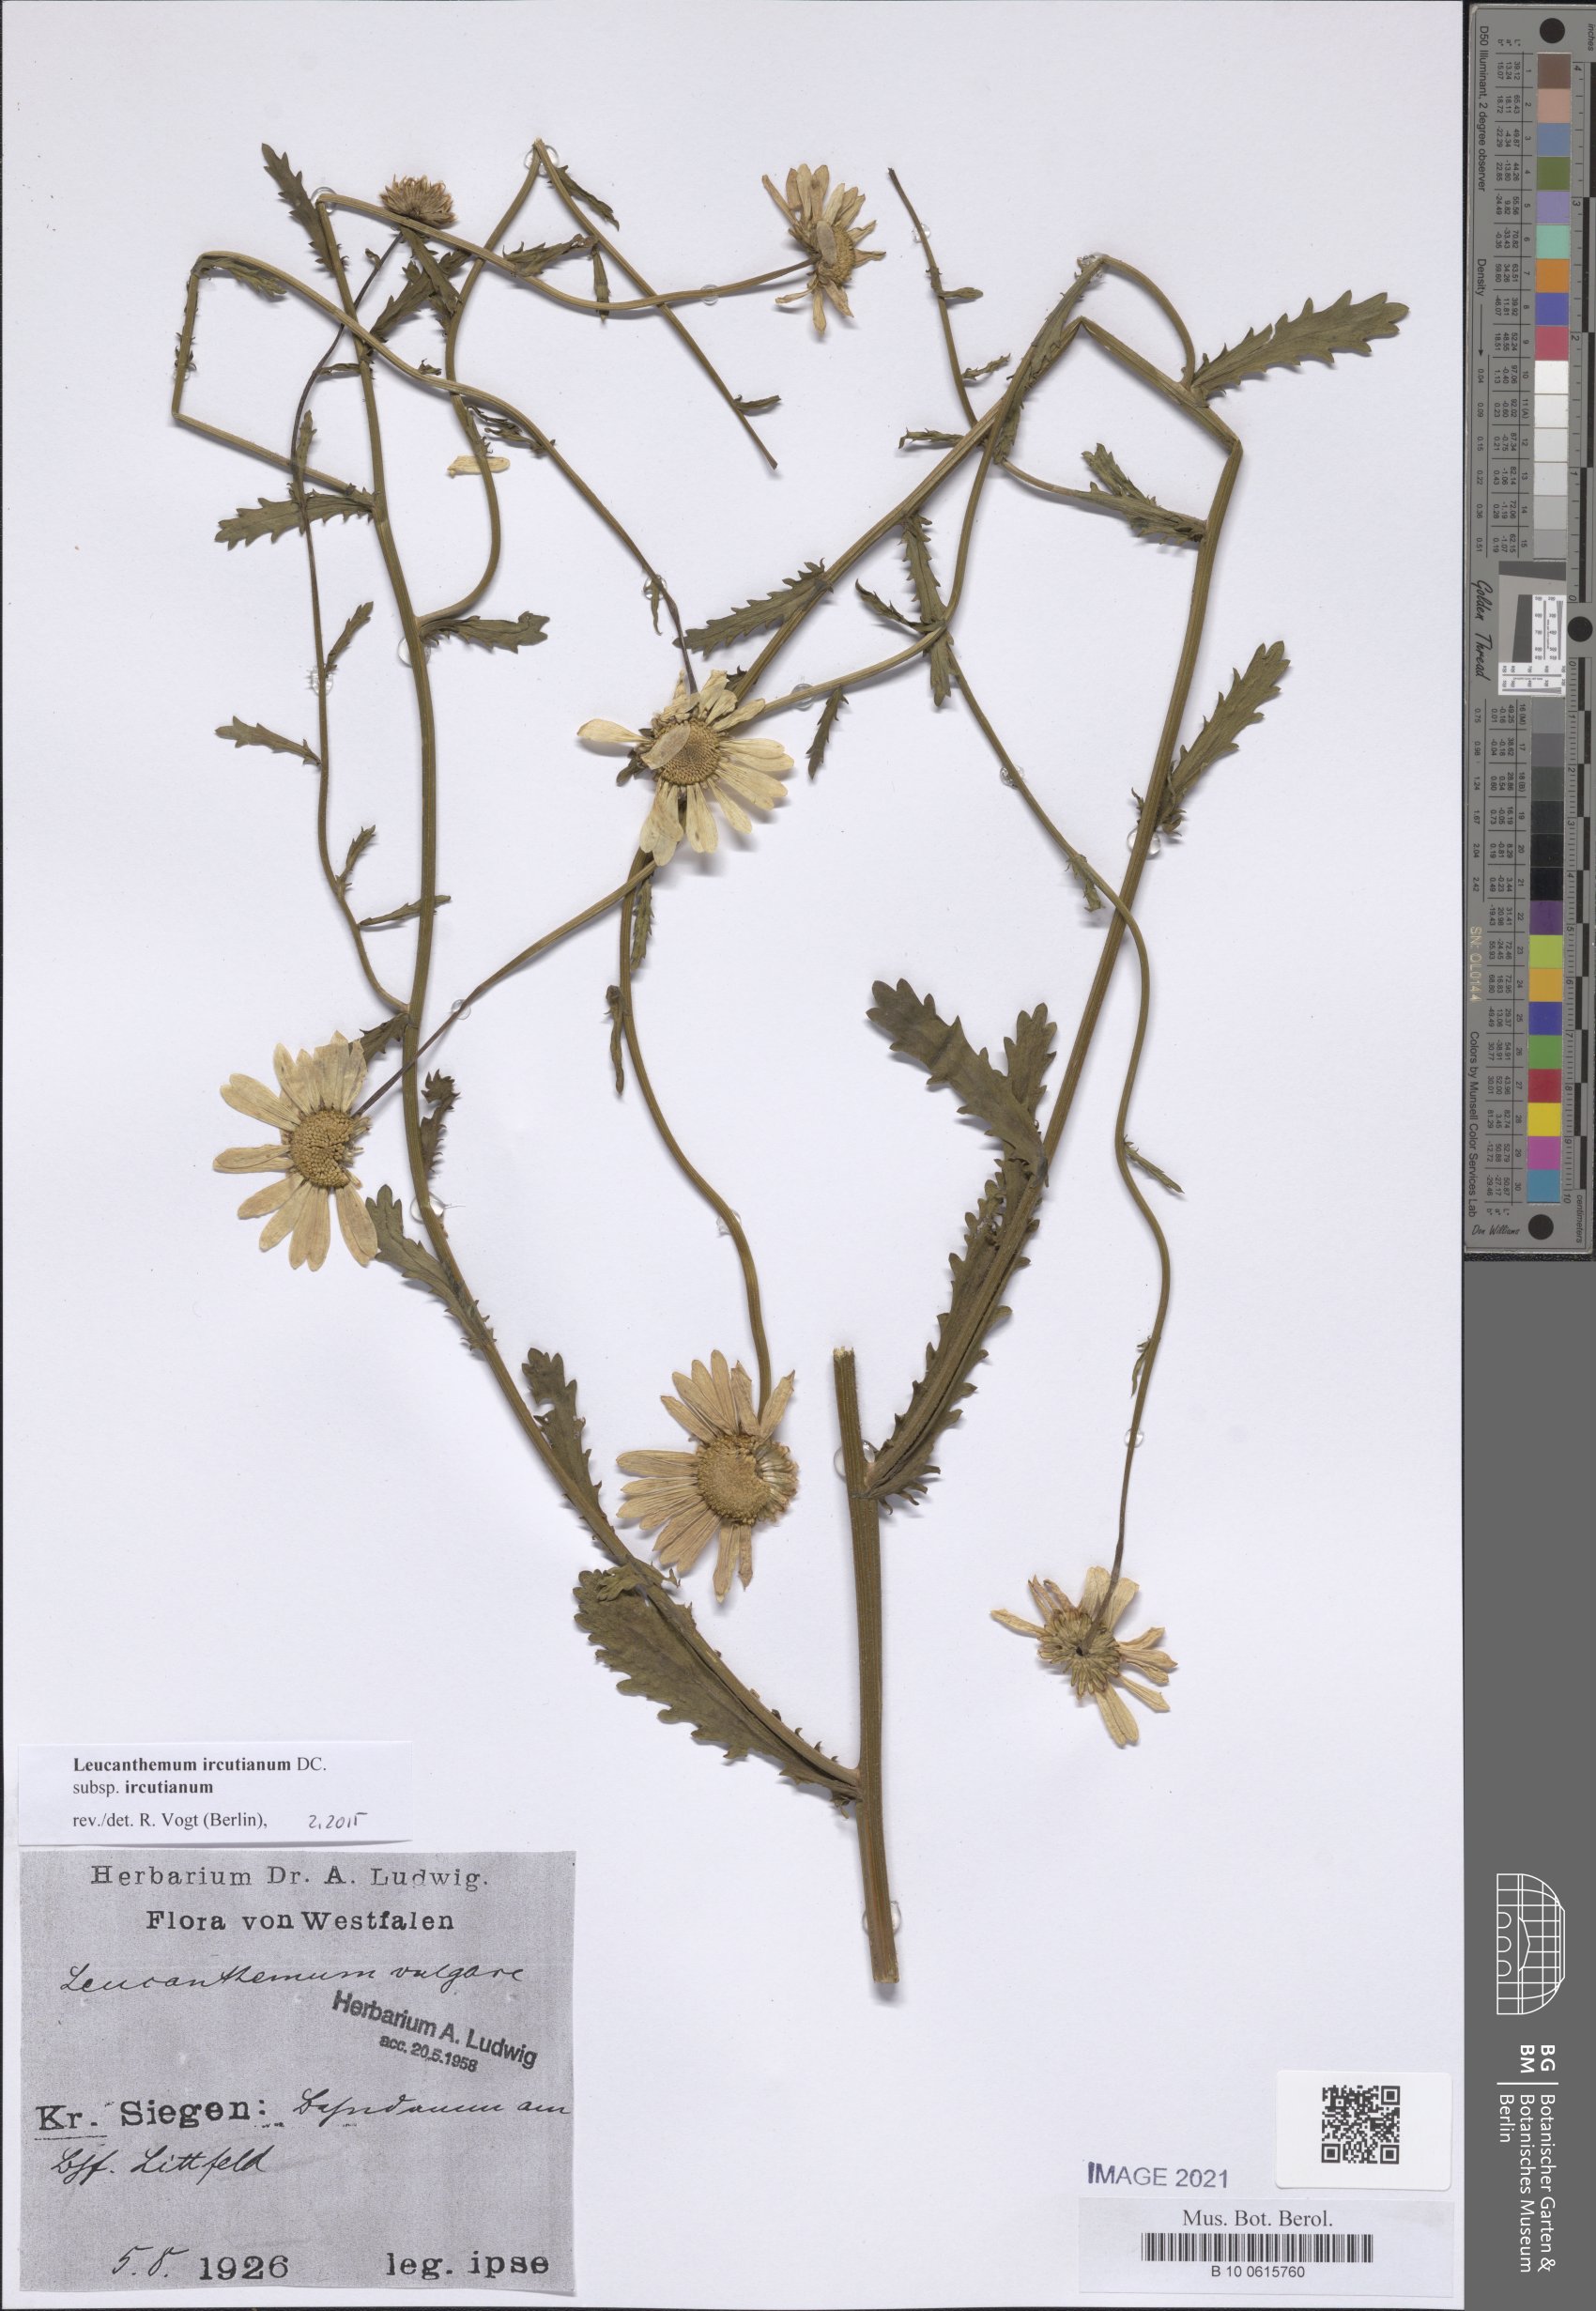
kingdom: Plantae
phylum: Tracheophyta
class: Magnoliopsida
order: Asterales
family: Asteraceae
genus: Leucanthemum
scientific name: Leucanthemum ircutianum
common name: Daisy
